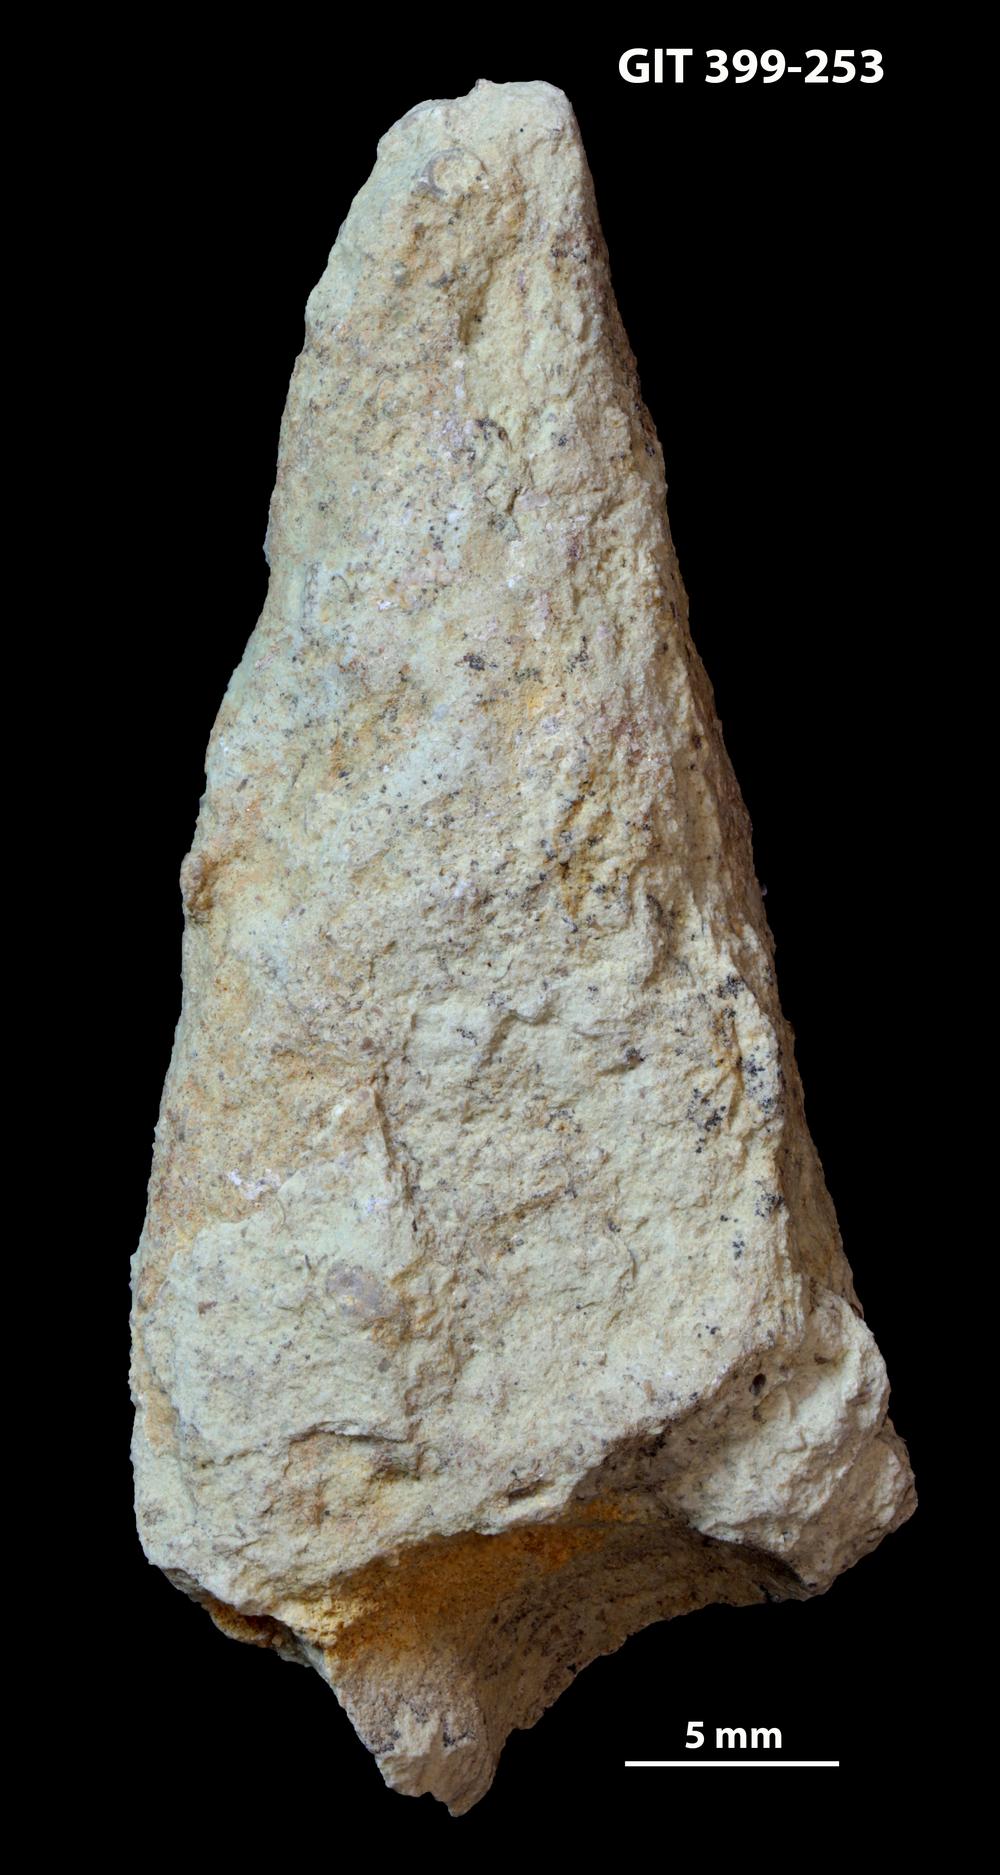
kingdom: Animalia
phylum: Annelida
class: Polychaeta
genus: Hyolithes
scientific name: Hyolithes
